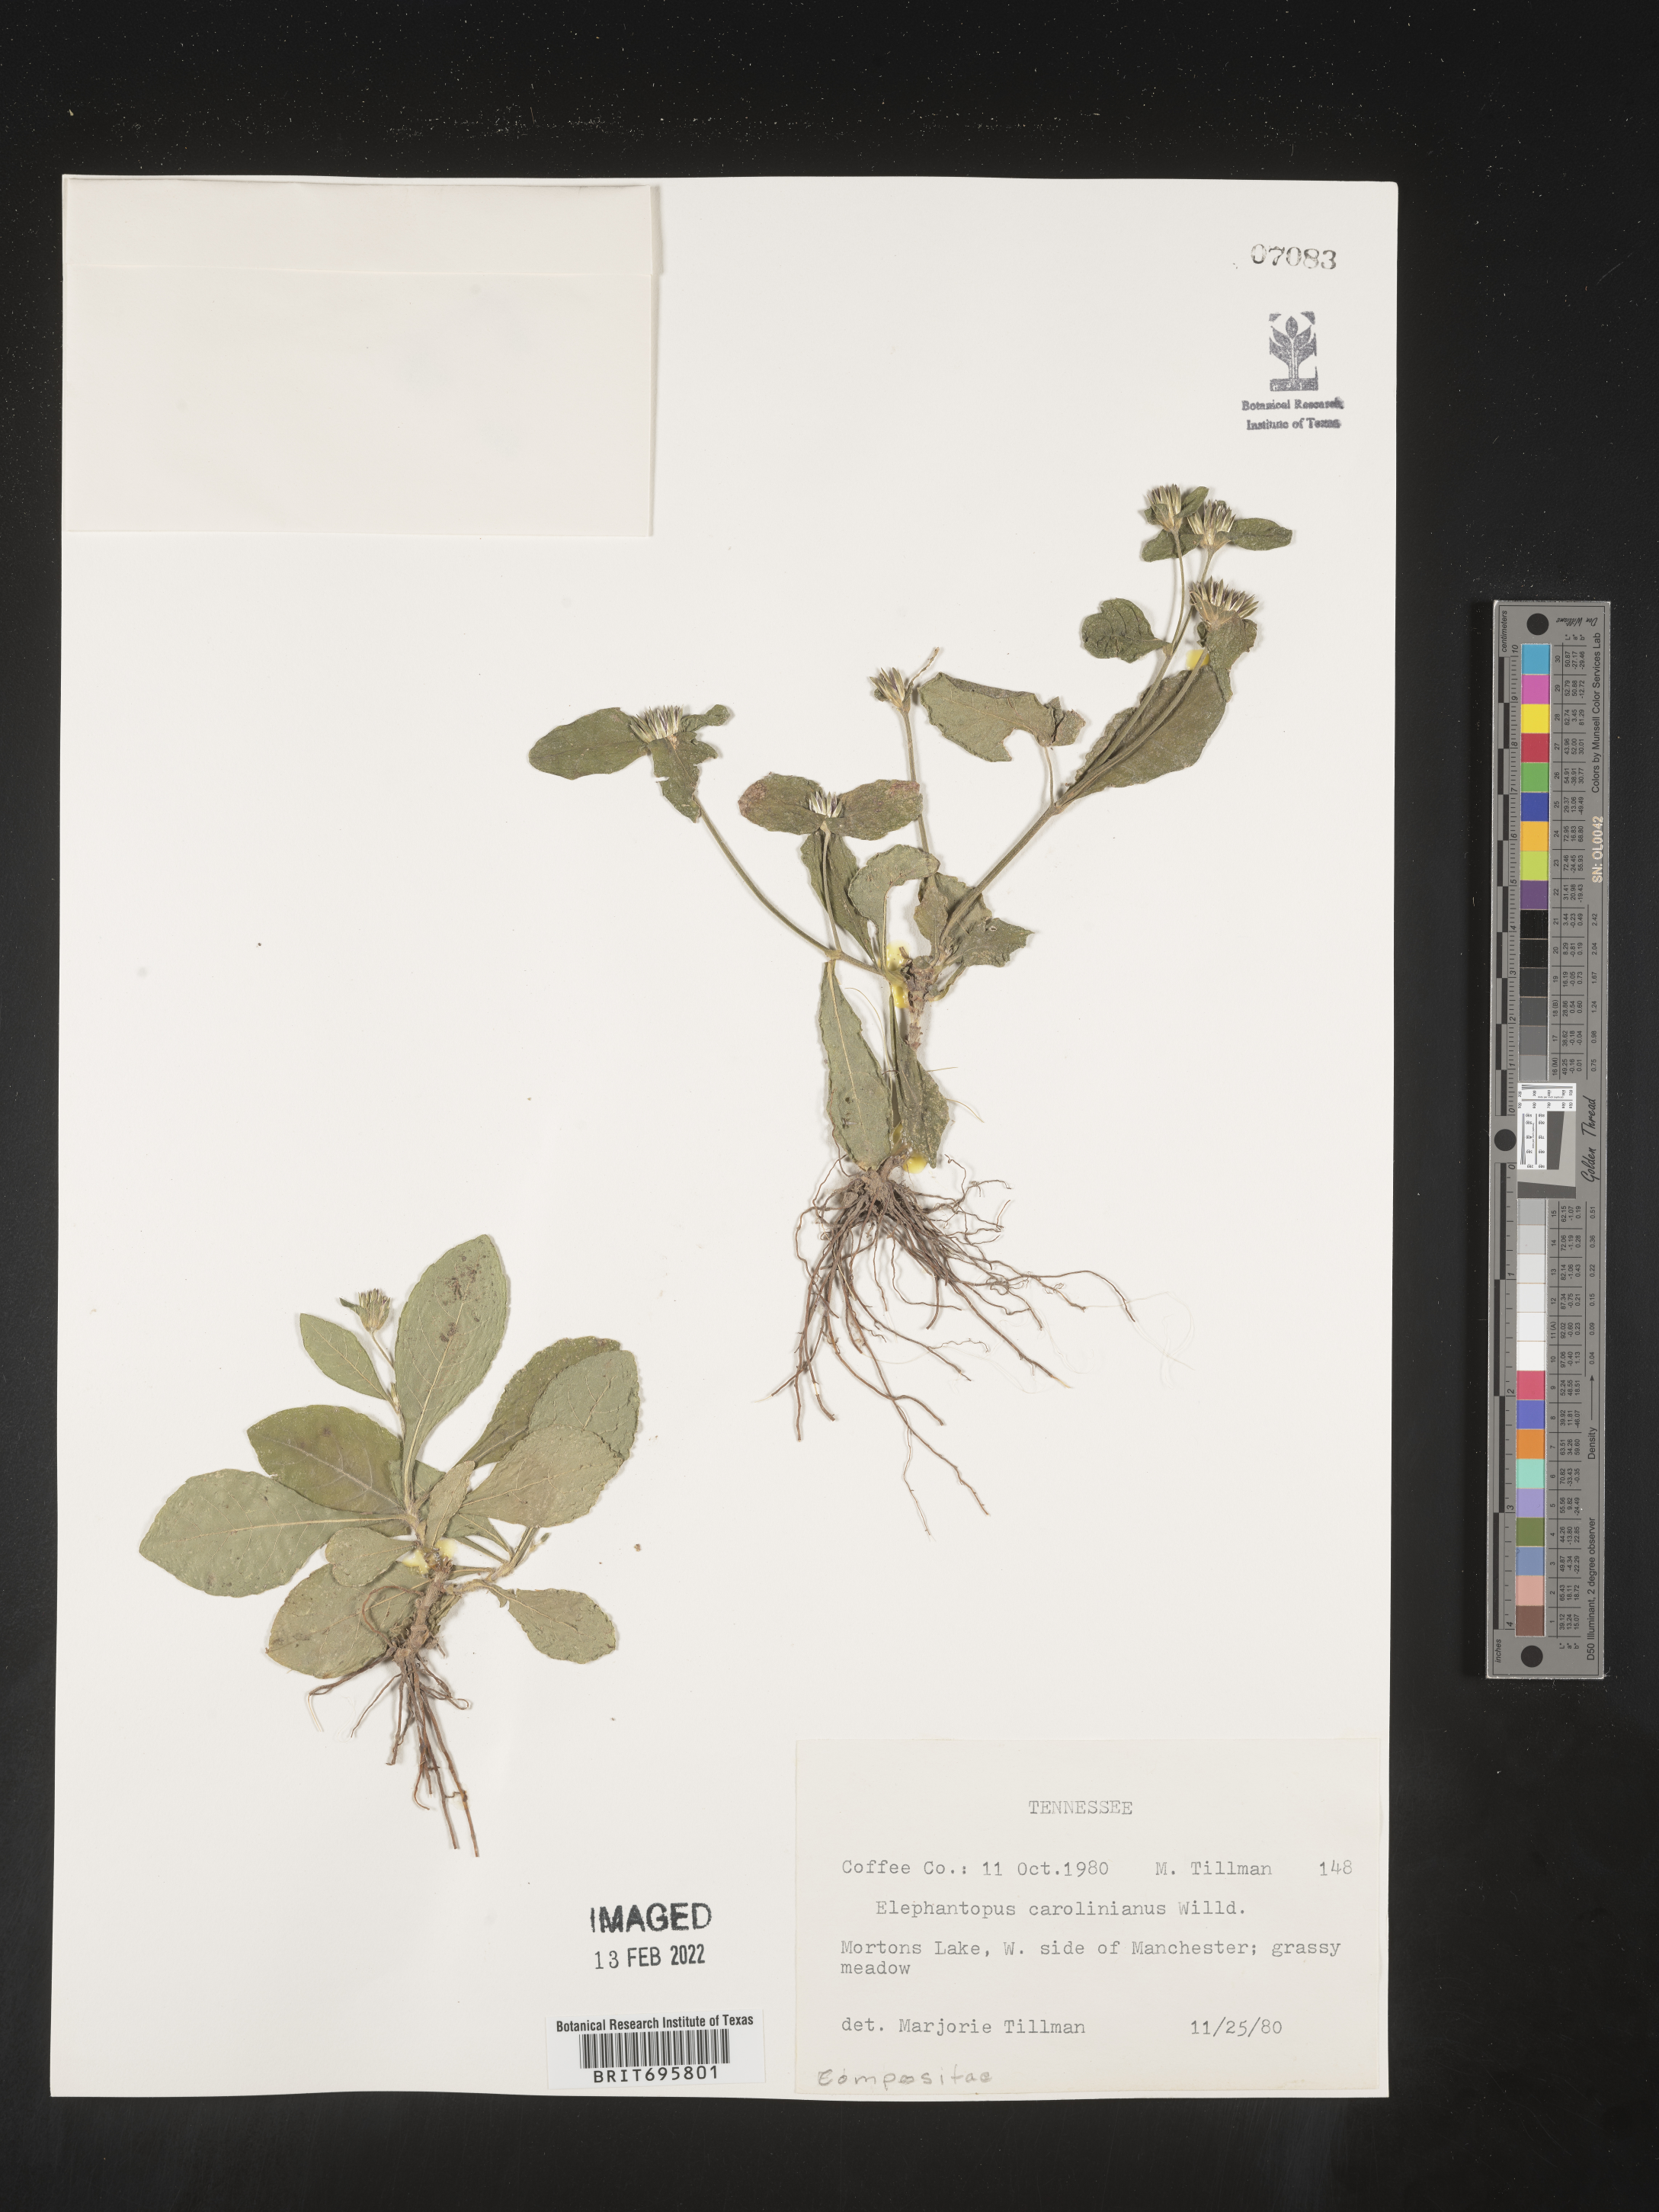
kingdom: Plantae
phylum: Tracheophyta
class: Magnoliopsida
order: Asterales
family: Asteraceae
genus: Elephantopus
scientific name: Elephantopus carolinianus
